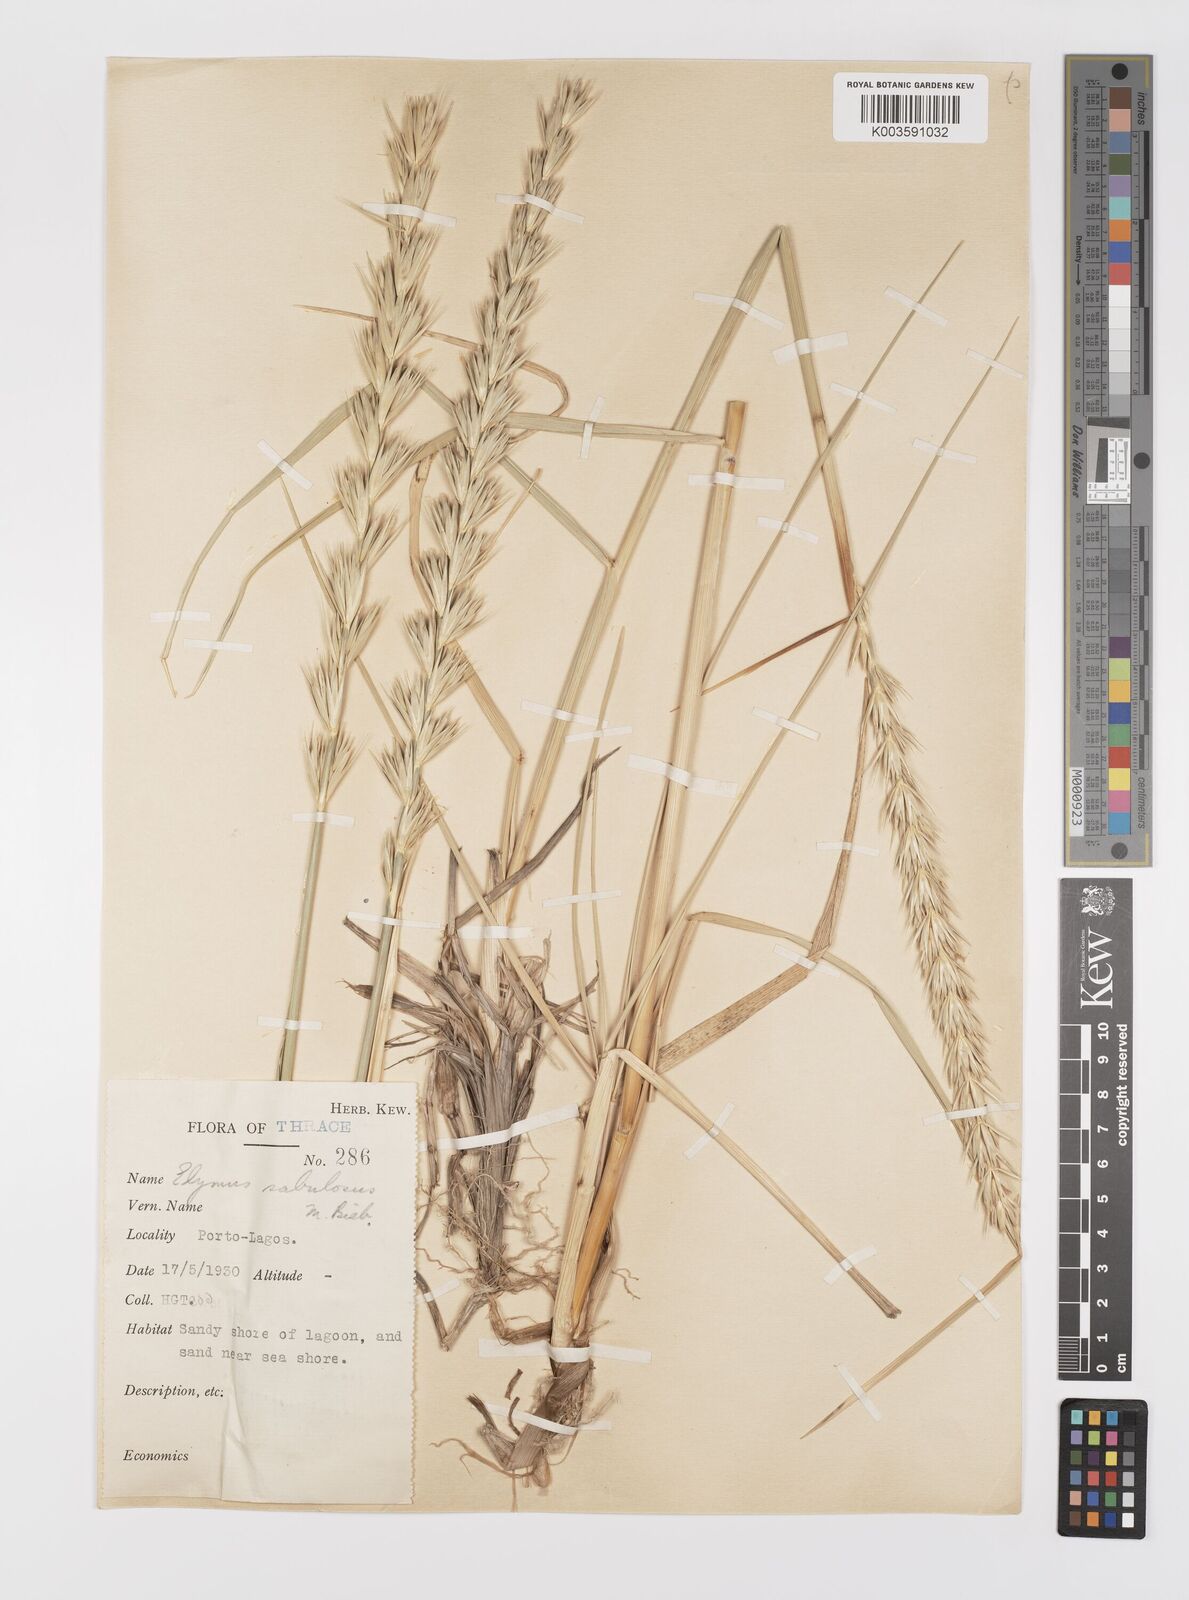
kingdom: Plantae
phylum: Tracheophyta
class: Liliopsida
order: Poales
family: Poaceae
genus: Leymus
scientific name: Leymus racemosus
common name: Mammoth wildrye
